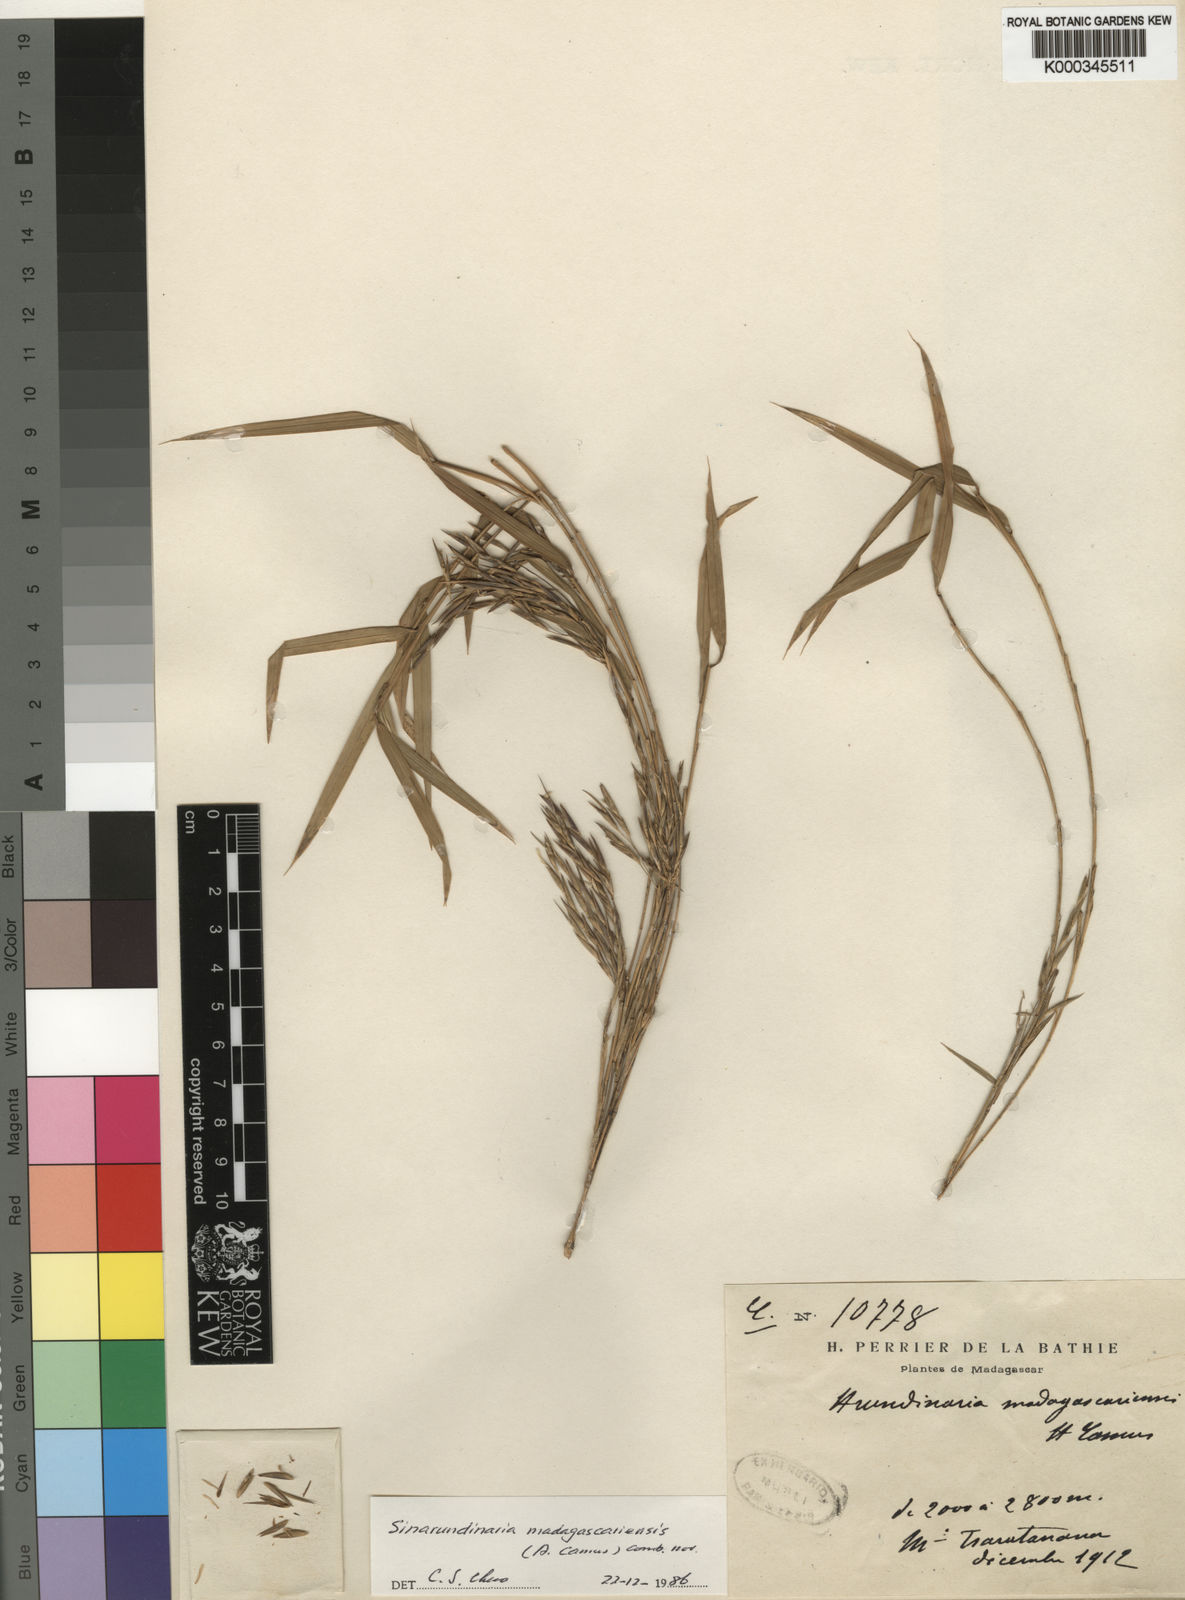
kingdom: Plantae
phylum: Tracheophyta
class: Liliopsida
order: Poales
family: Poaceae
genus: Oldeania
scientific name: Oldeania madagascariensis
